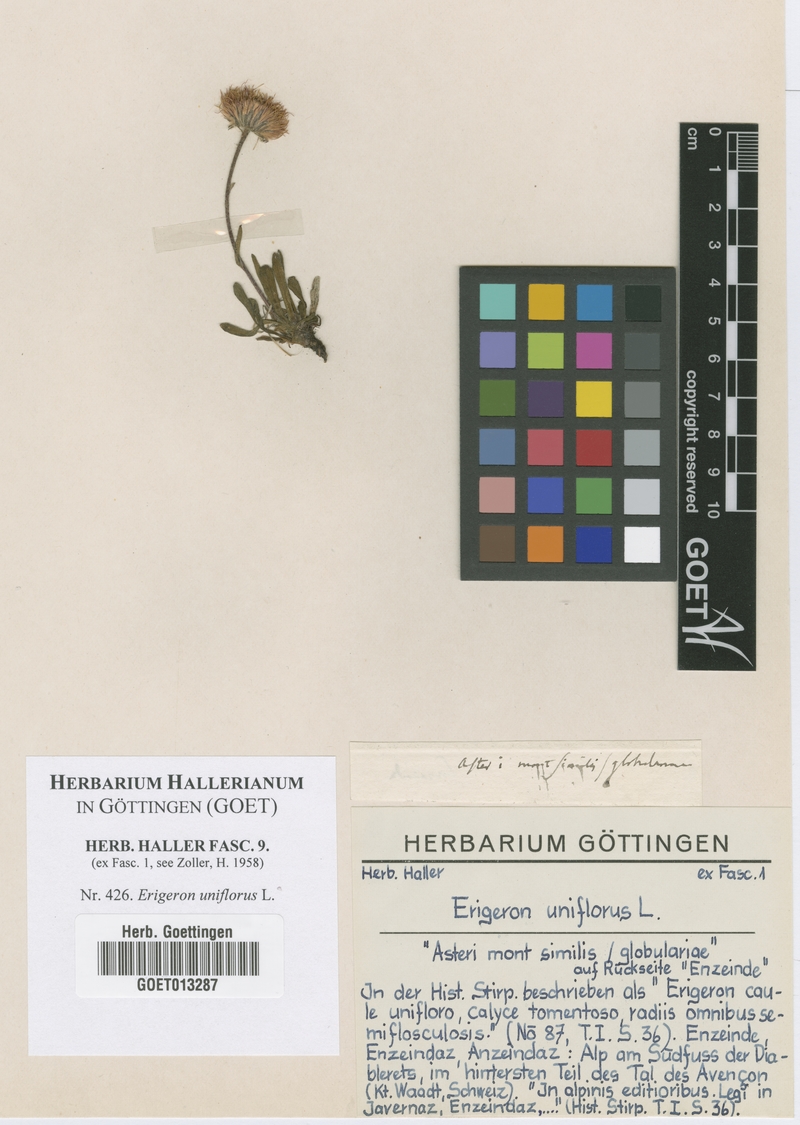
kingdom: Plantae
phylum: Tracheophyta
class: Magnoliopsida
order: Asterales
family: Asteraceae
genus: Erigeron
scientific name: Erigeron uniflorus
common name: Northern daisy
